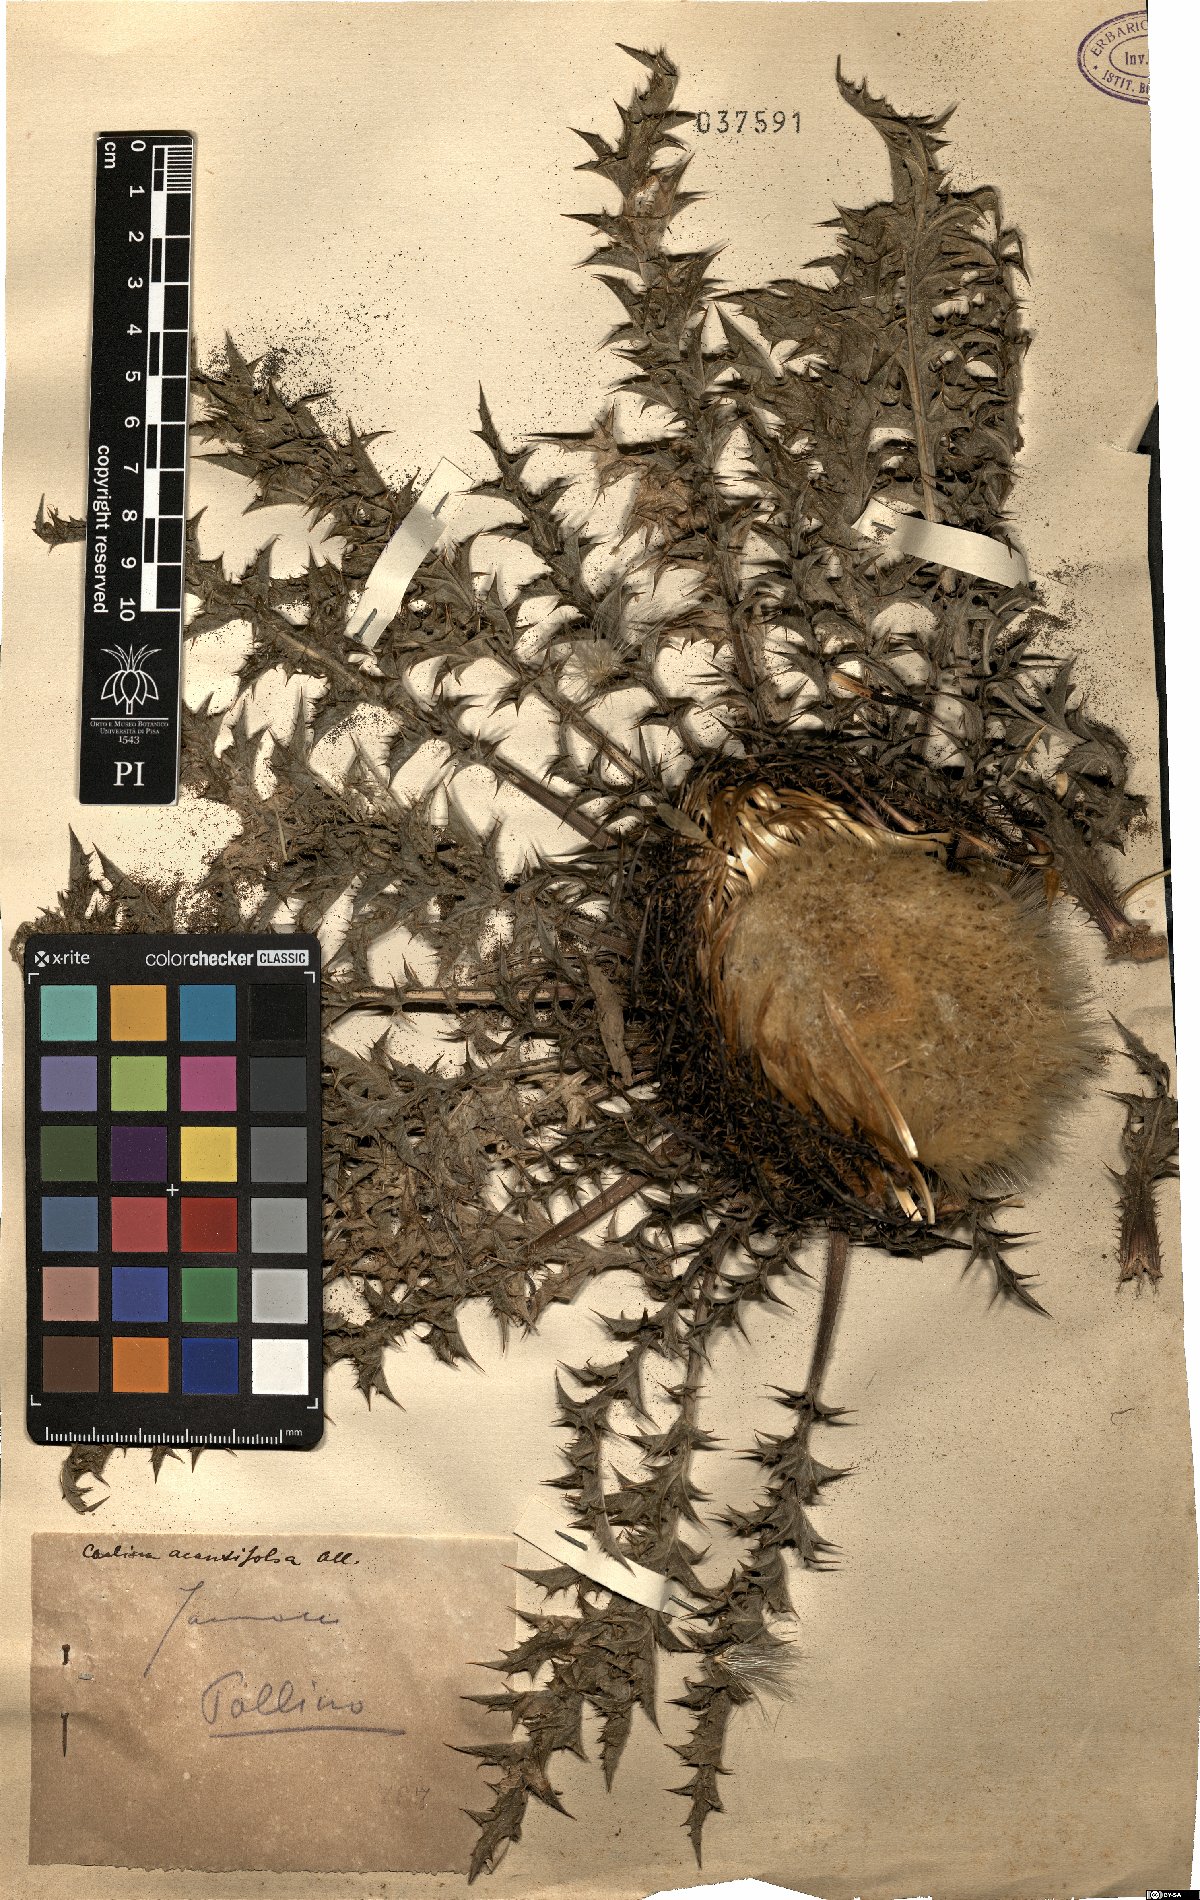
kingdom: Plantae
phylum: Tracheophyta
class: Magnoliopsida
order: Asterales
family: Asteraceae
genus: Carlina
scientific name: Carlina acanthifolia
